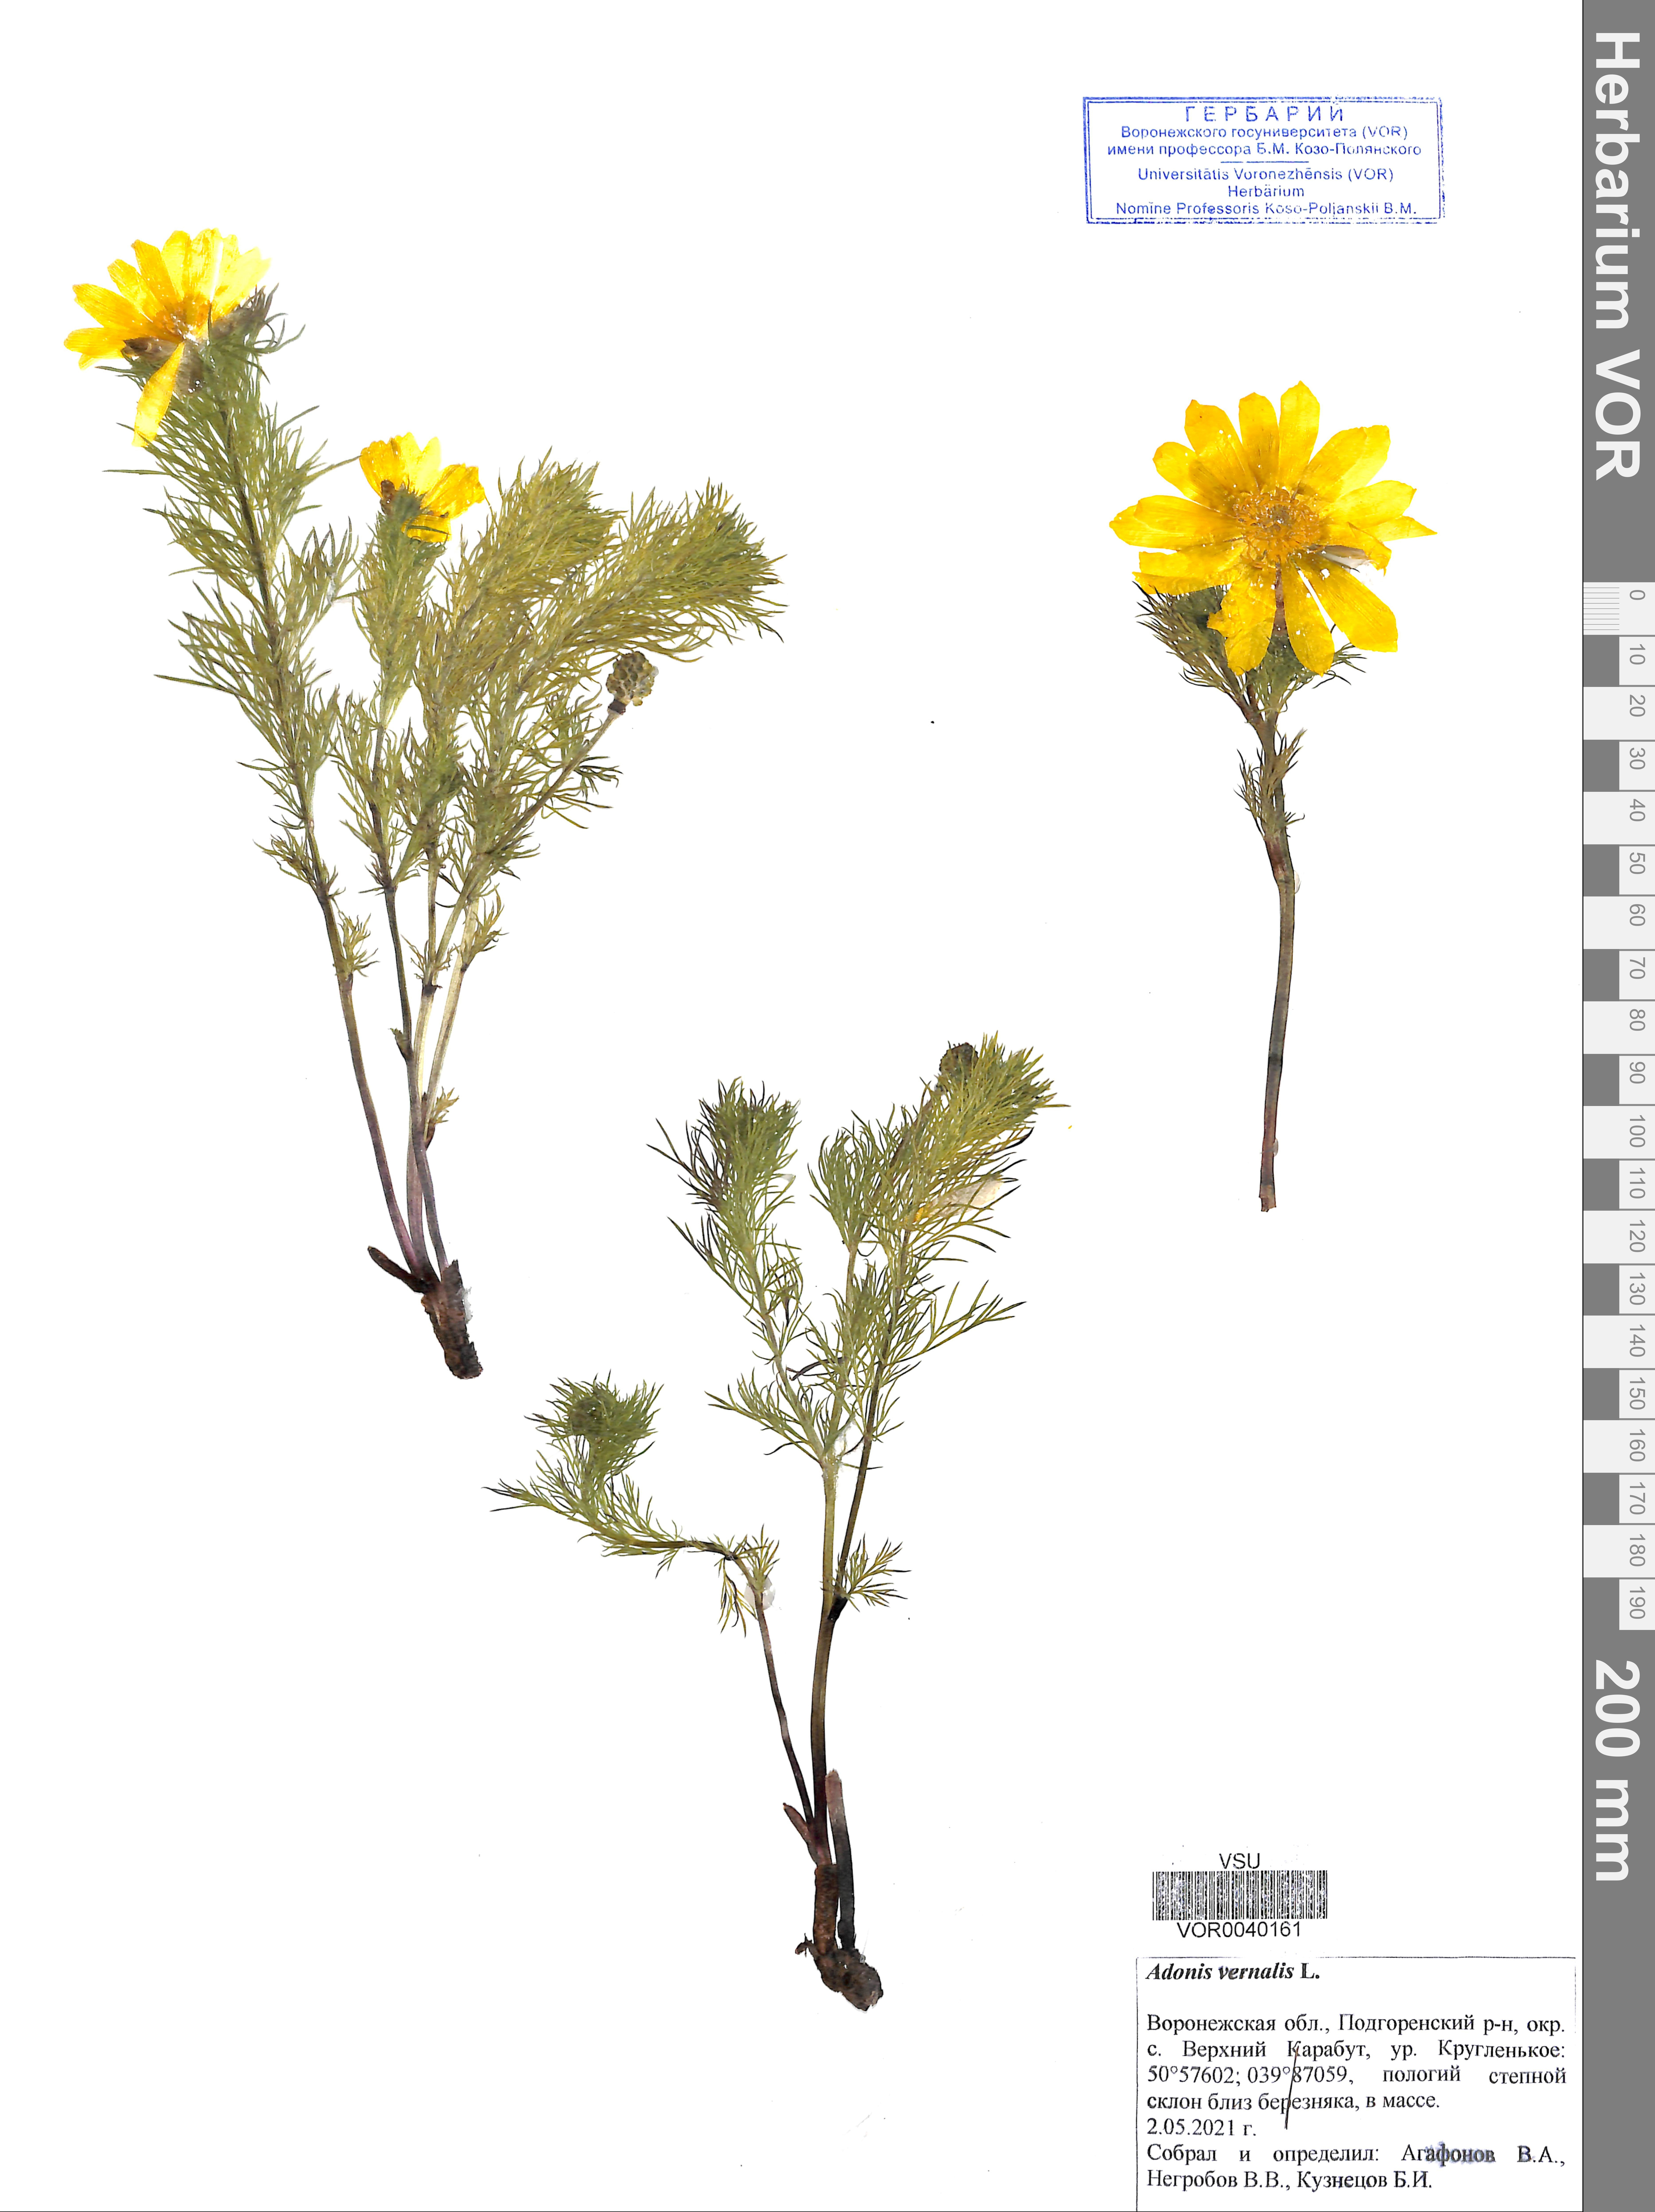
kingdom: Plantae
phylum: Tracheophyta
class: Magnoliopsida
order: Ranunculales
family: Ranunculaceae
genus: Adonis
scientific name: Adonis vernalis
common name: Yellow pheasants-eye
